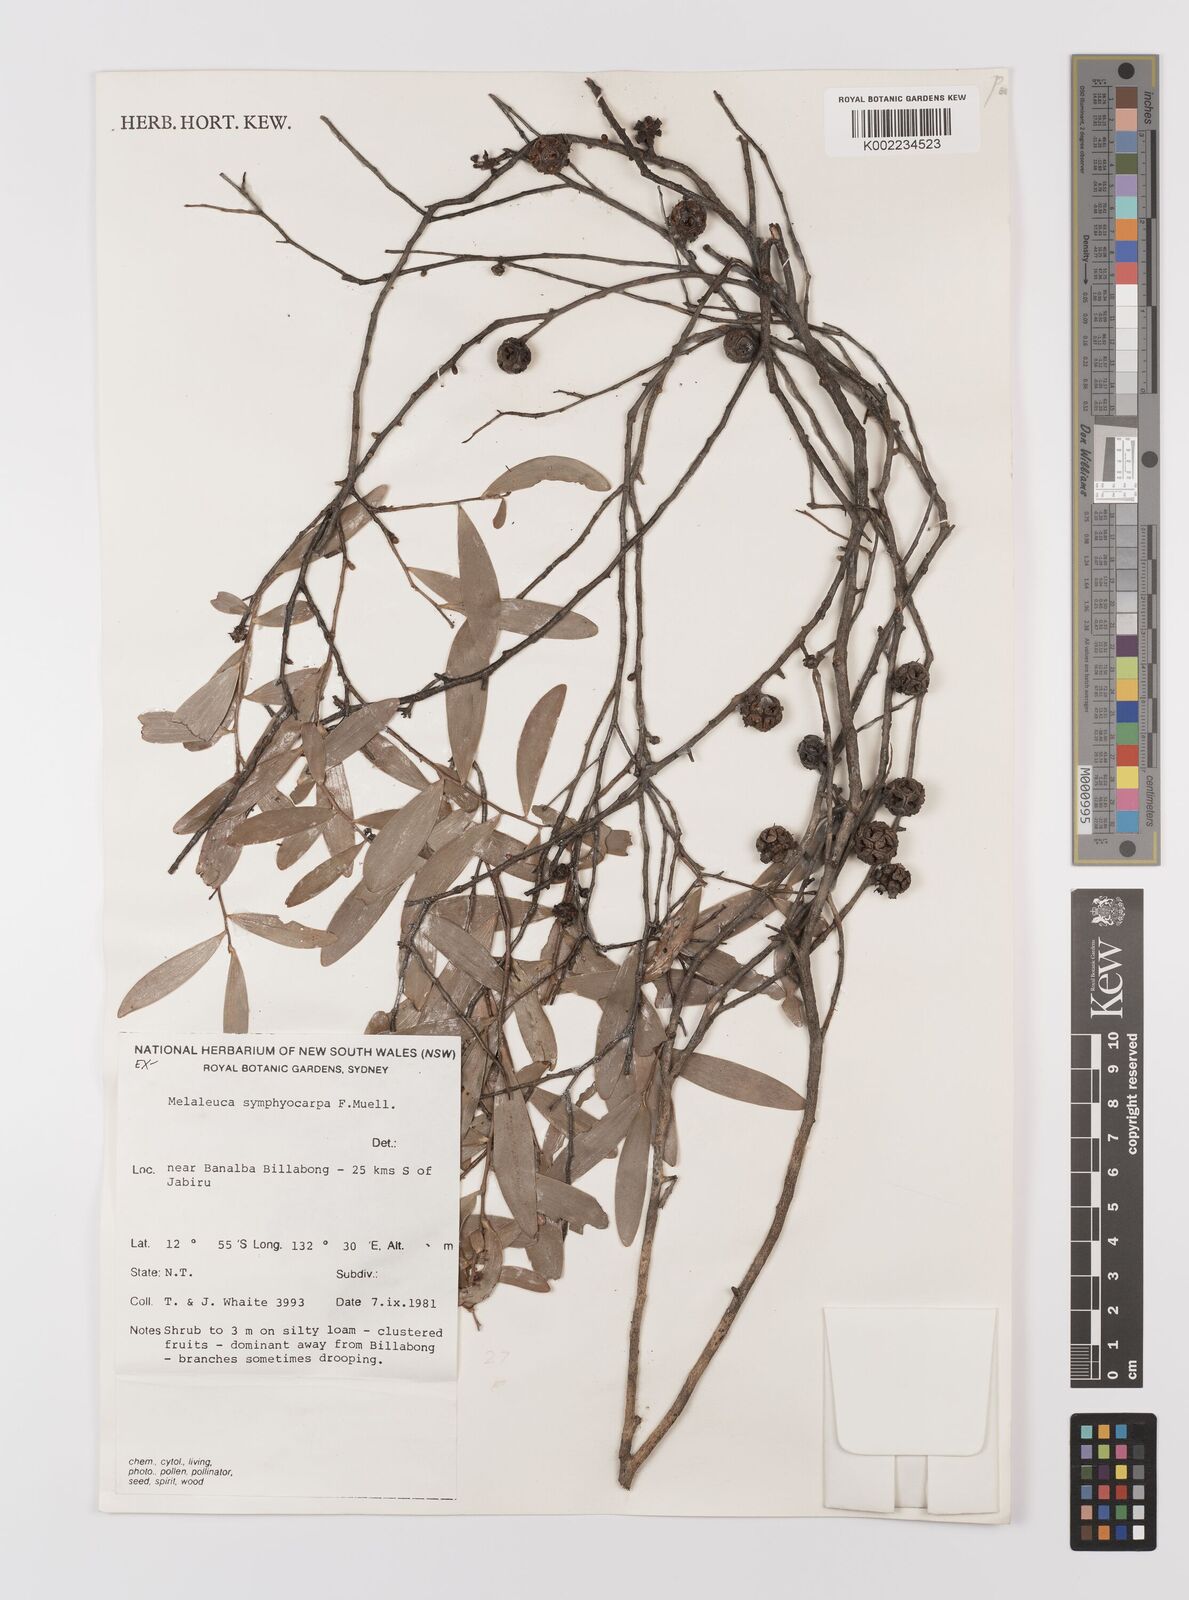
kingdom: Plantae
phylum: Tracheophyta
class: Magnoliopsida
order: Myrtales
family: Myrtaceae
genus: Asteromyrtus
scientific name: Asteromyrtus symphyocarpa
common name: Liniment-tree
